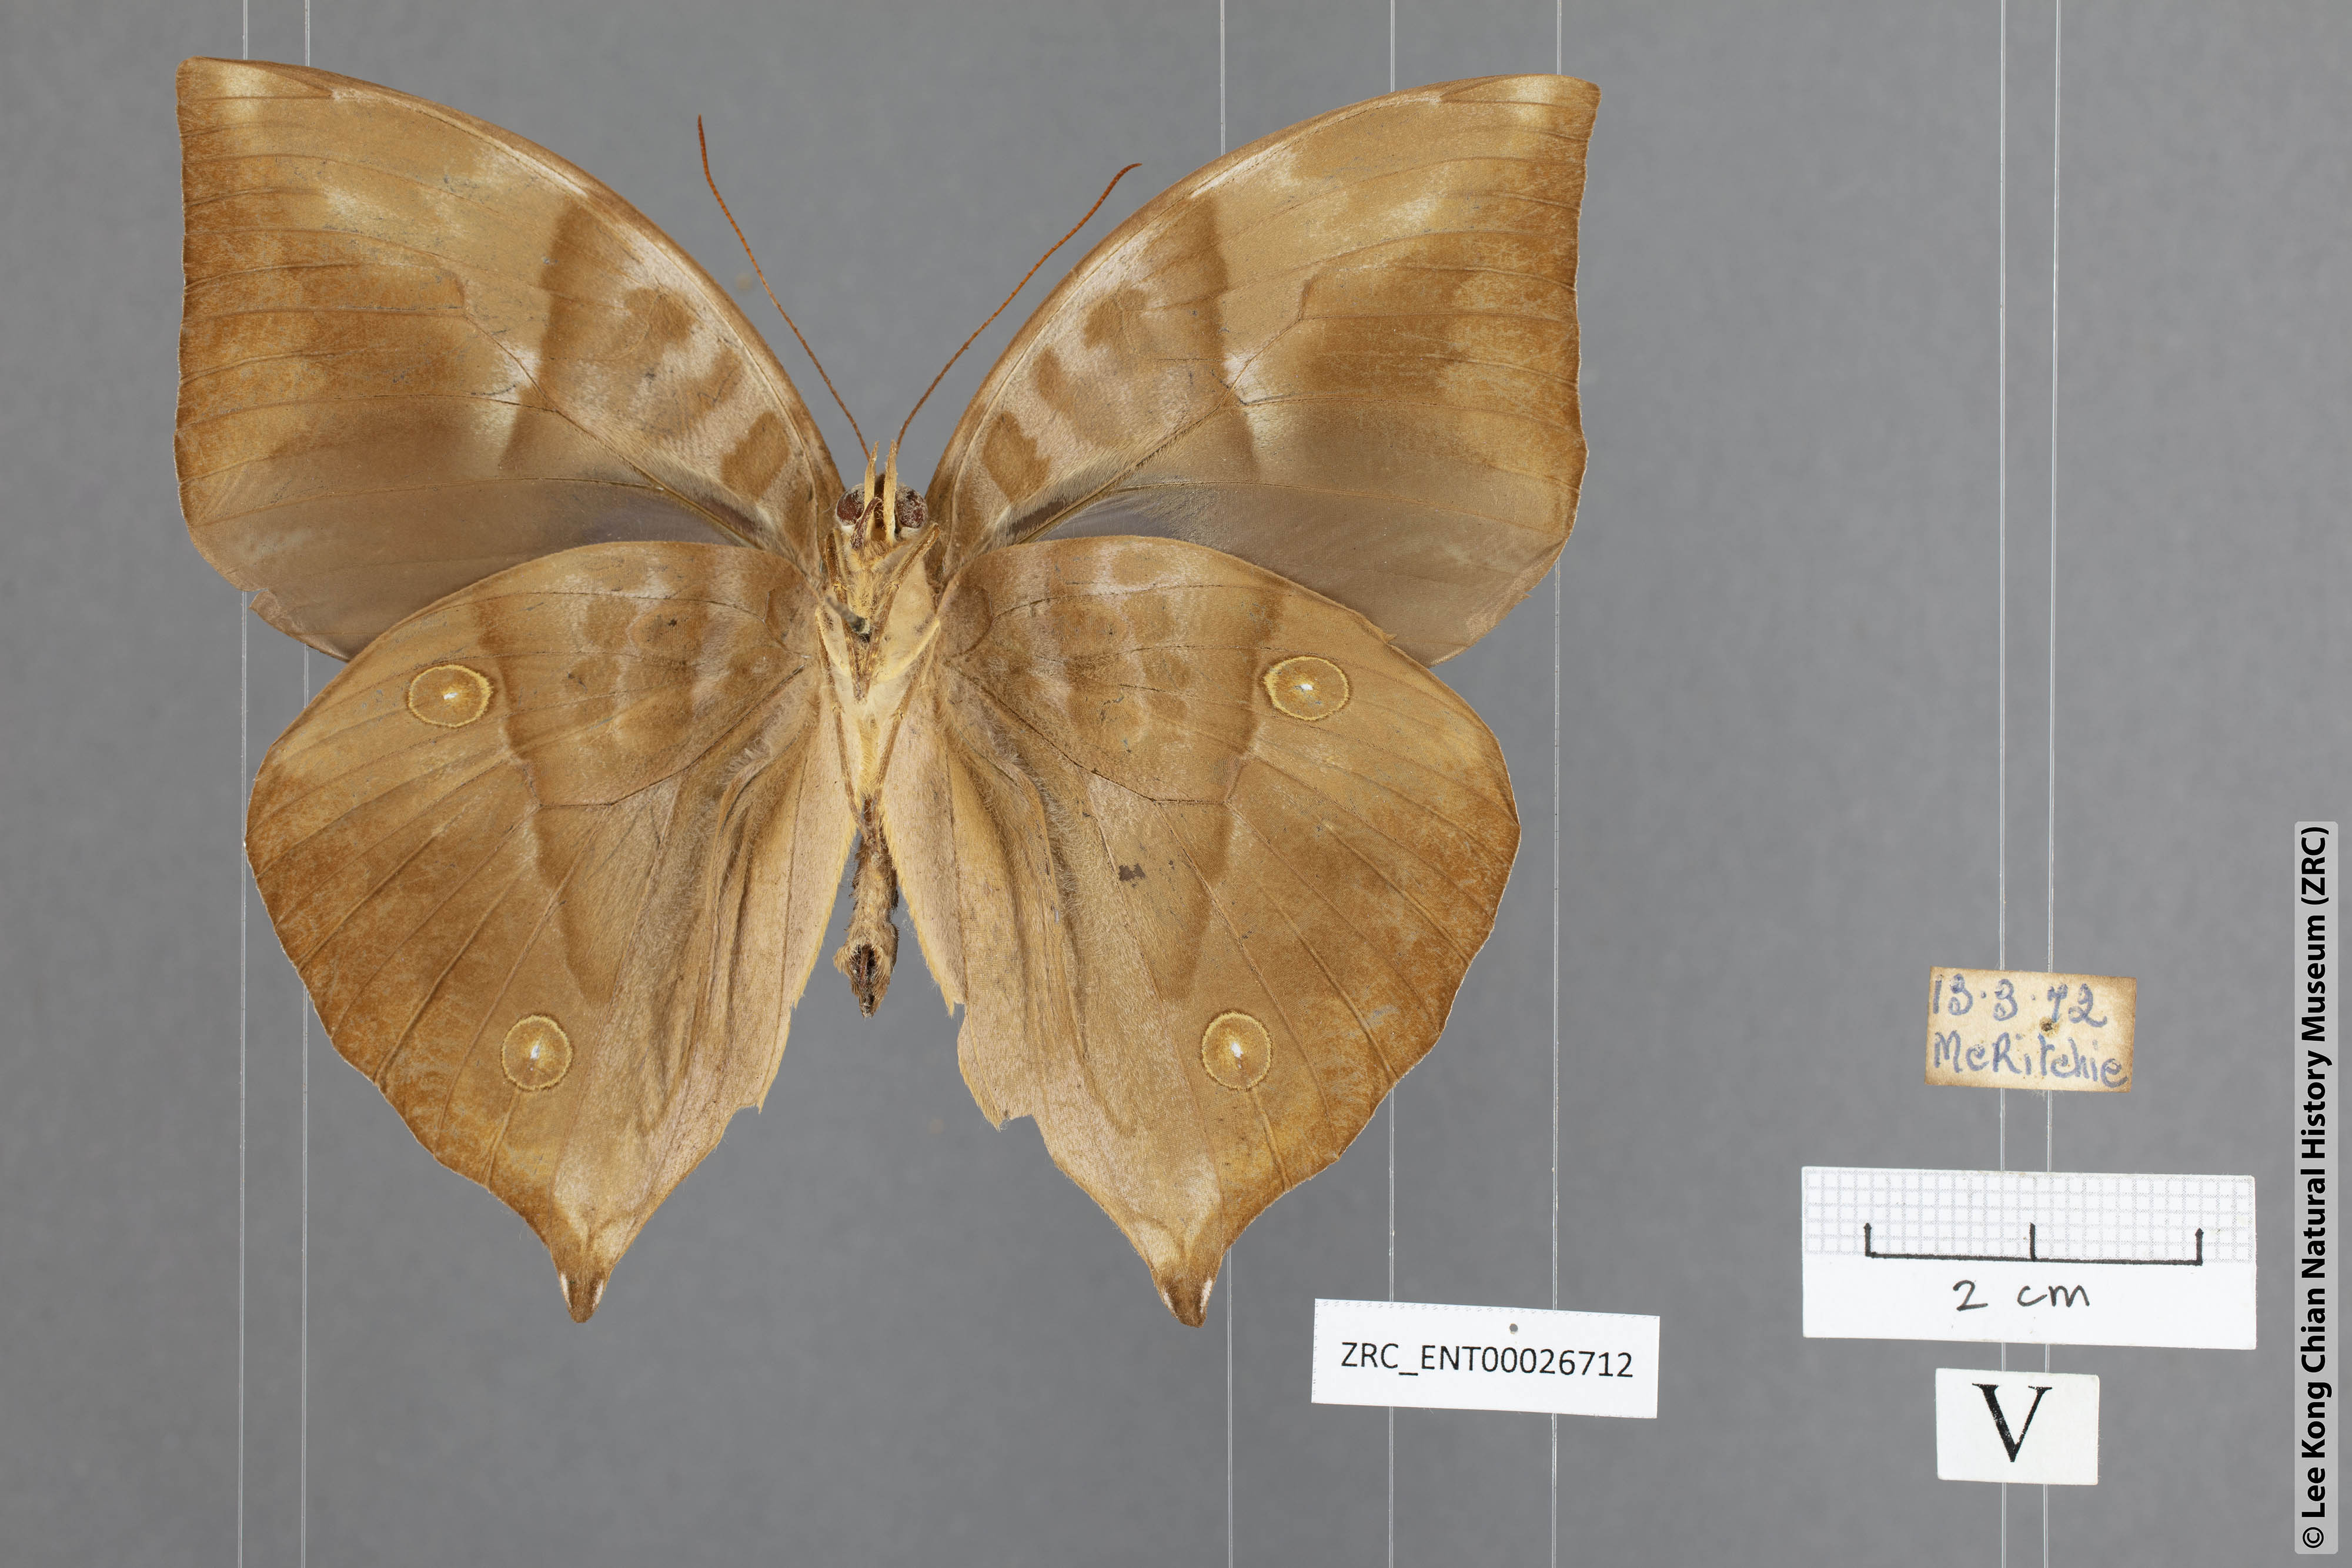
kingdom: Animalia
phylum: Arthropoda
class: Insecta
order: Lepidoptera
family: Nymphalidae
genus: Zeuxidia
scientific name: Zeuxidia ameythystus
